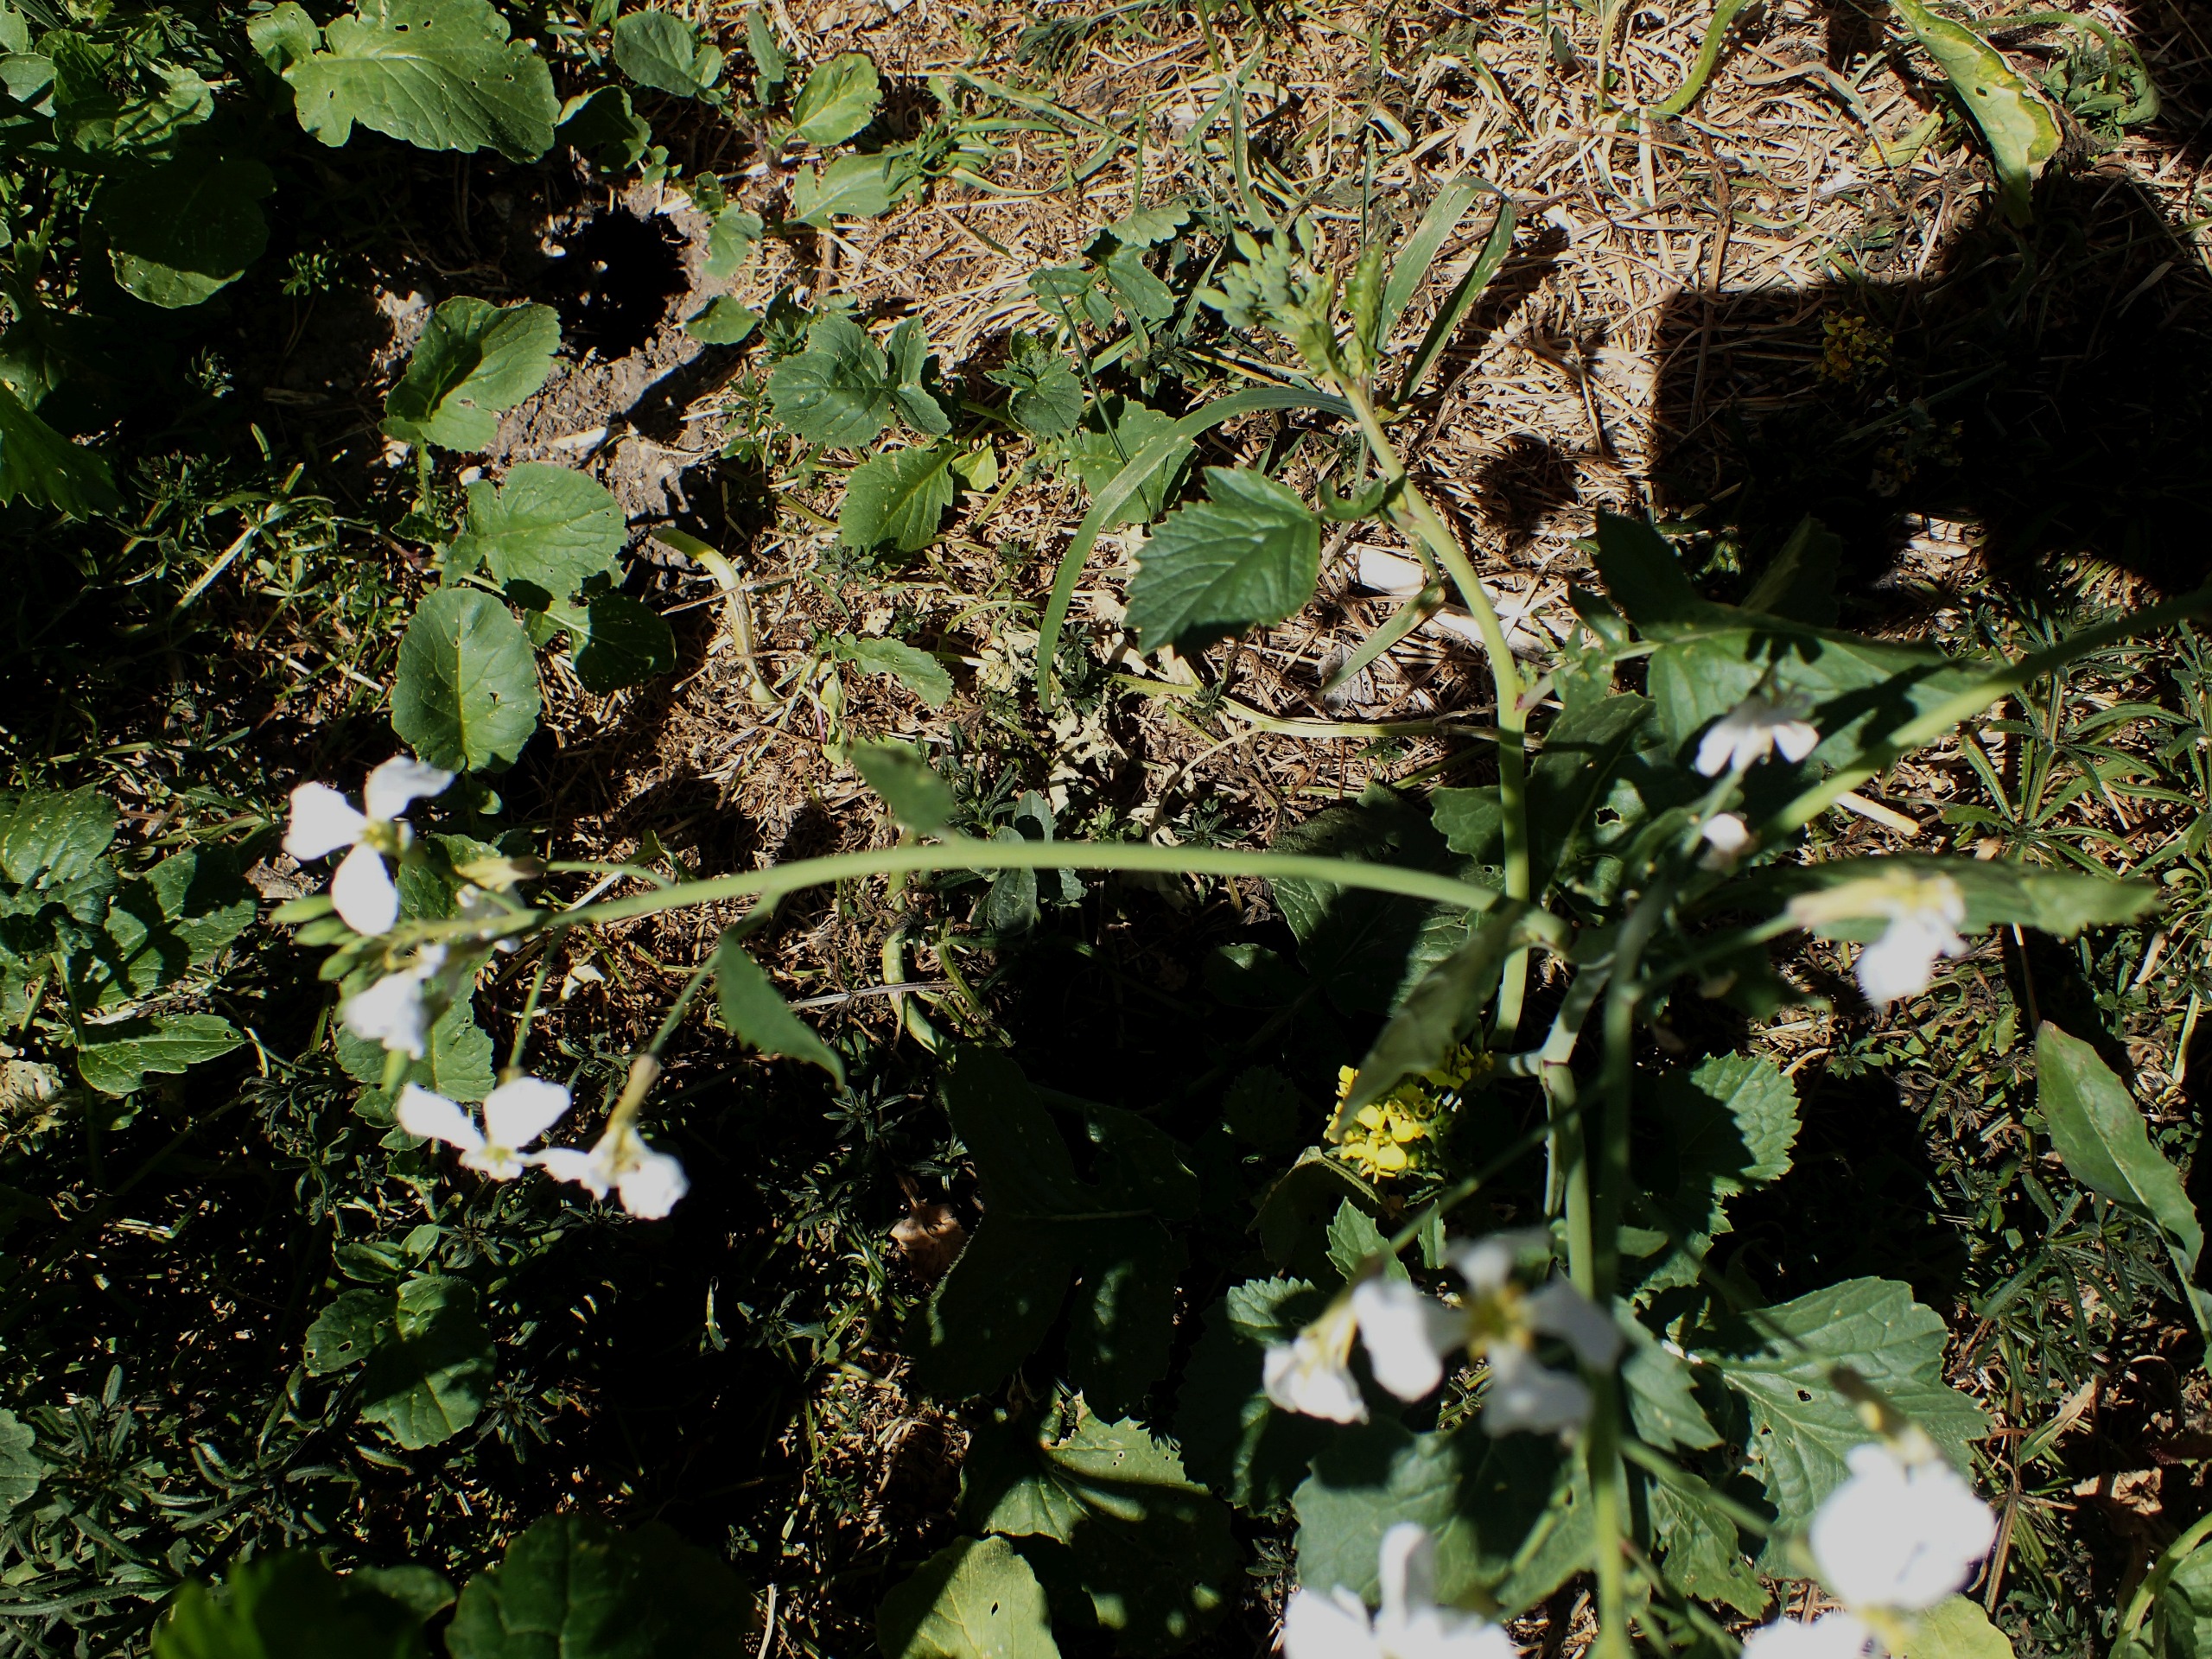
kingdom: Plantae
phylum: Tracheophyta
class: Magnoliopsida
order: Brassicales
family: Brassicaceae
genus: Raphanus
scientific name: Raphanus raphanistrum
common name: Kiddike
